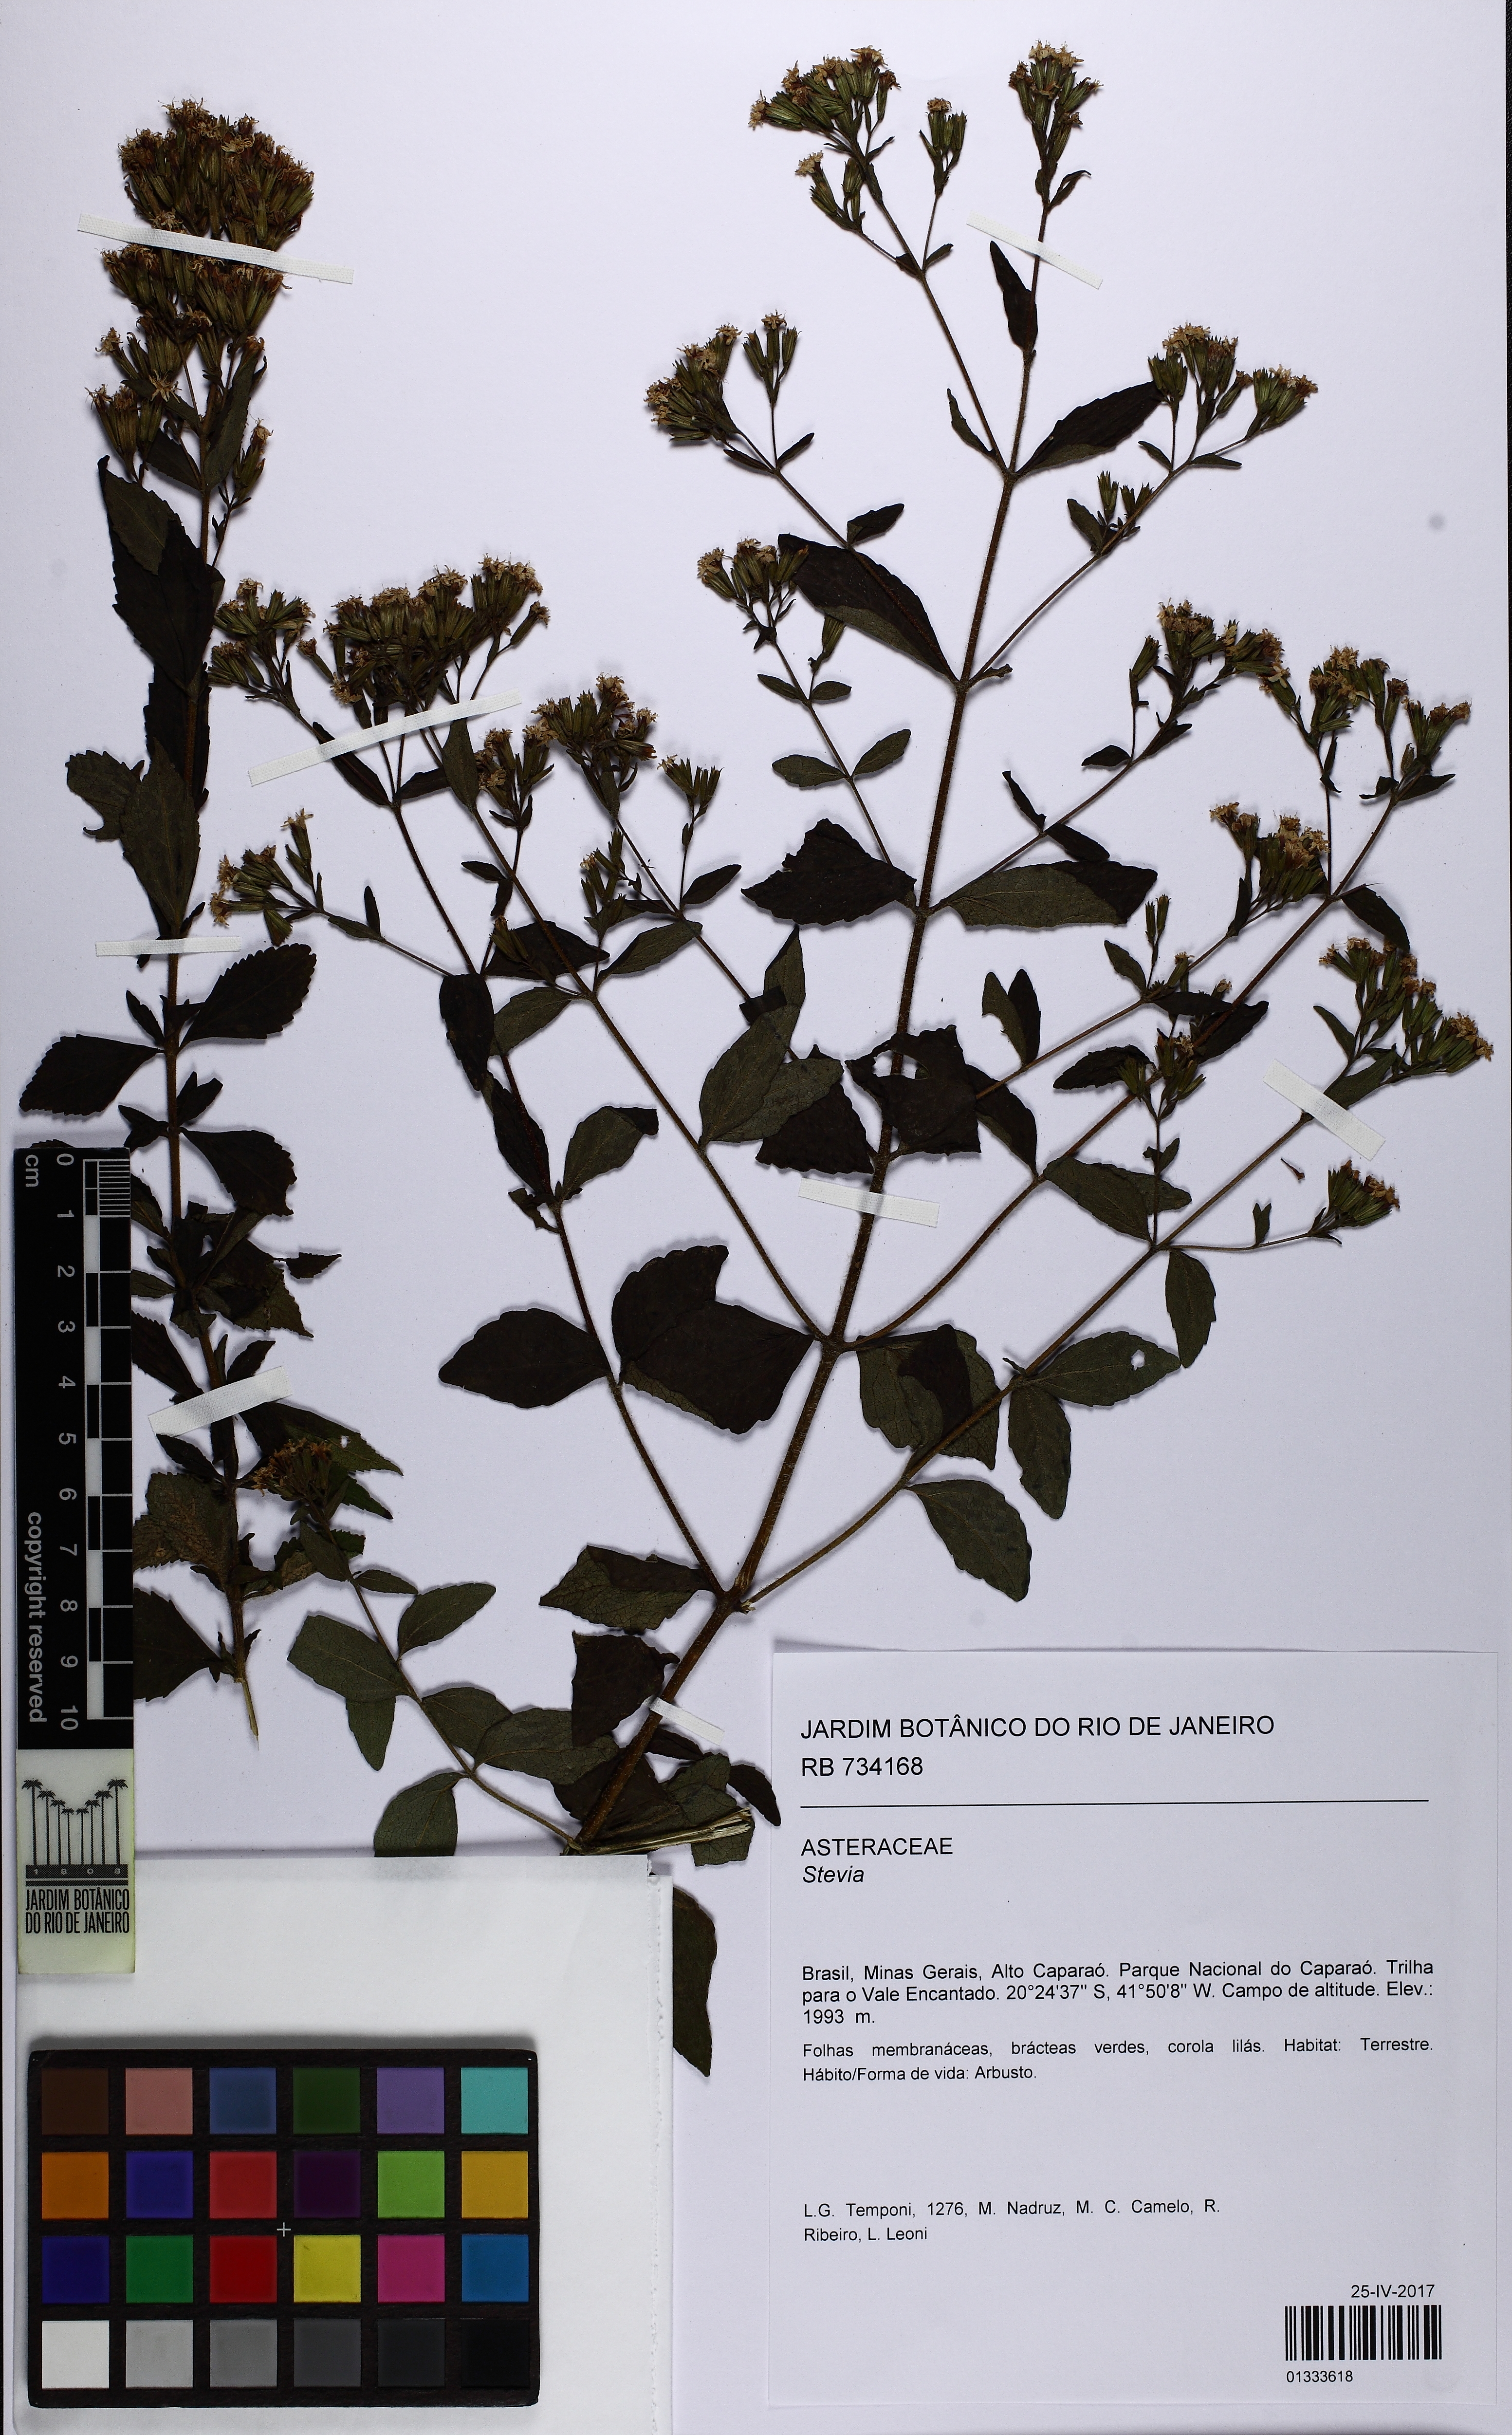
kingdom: Plantae
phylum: Tracheophyta
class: Magnoliopsida
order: Asterales
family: Asteraceae
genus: Stevia
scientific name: Stevia
